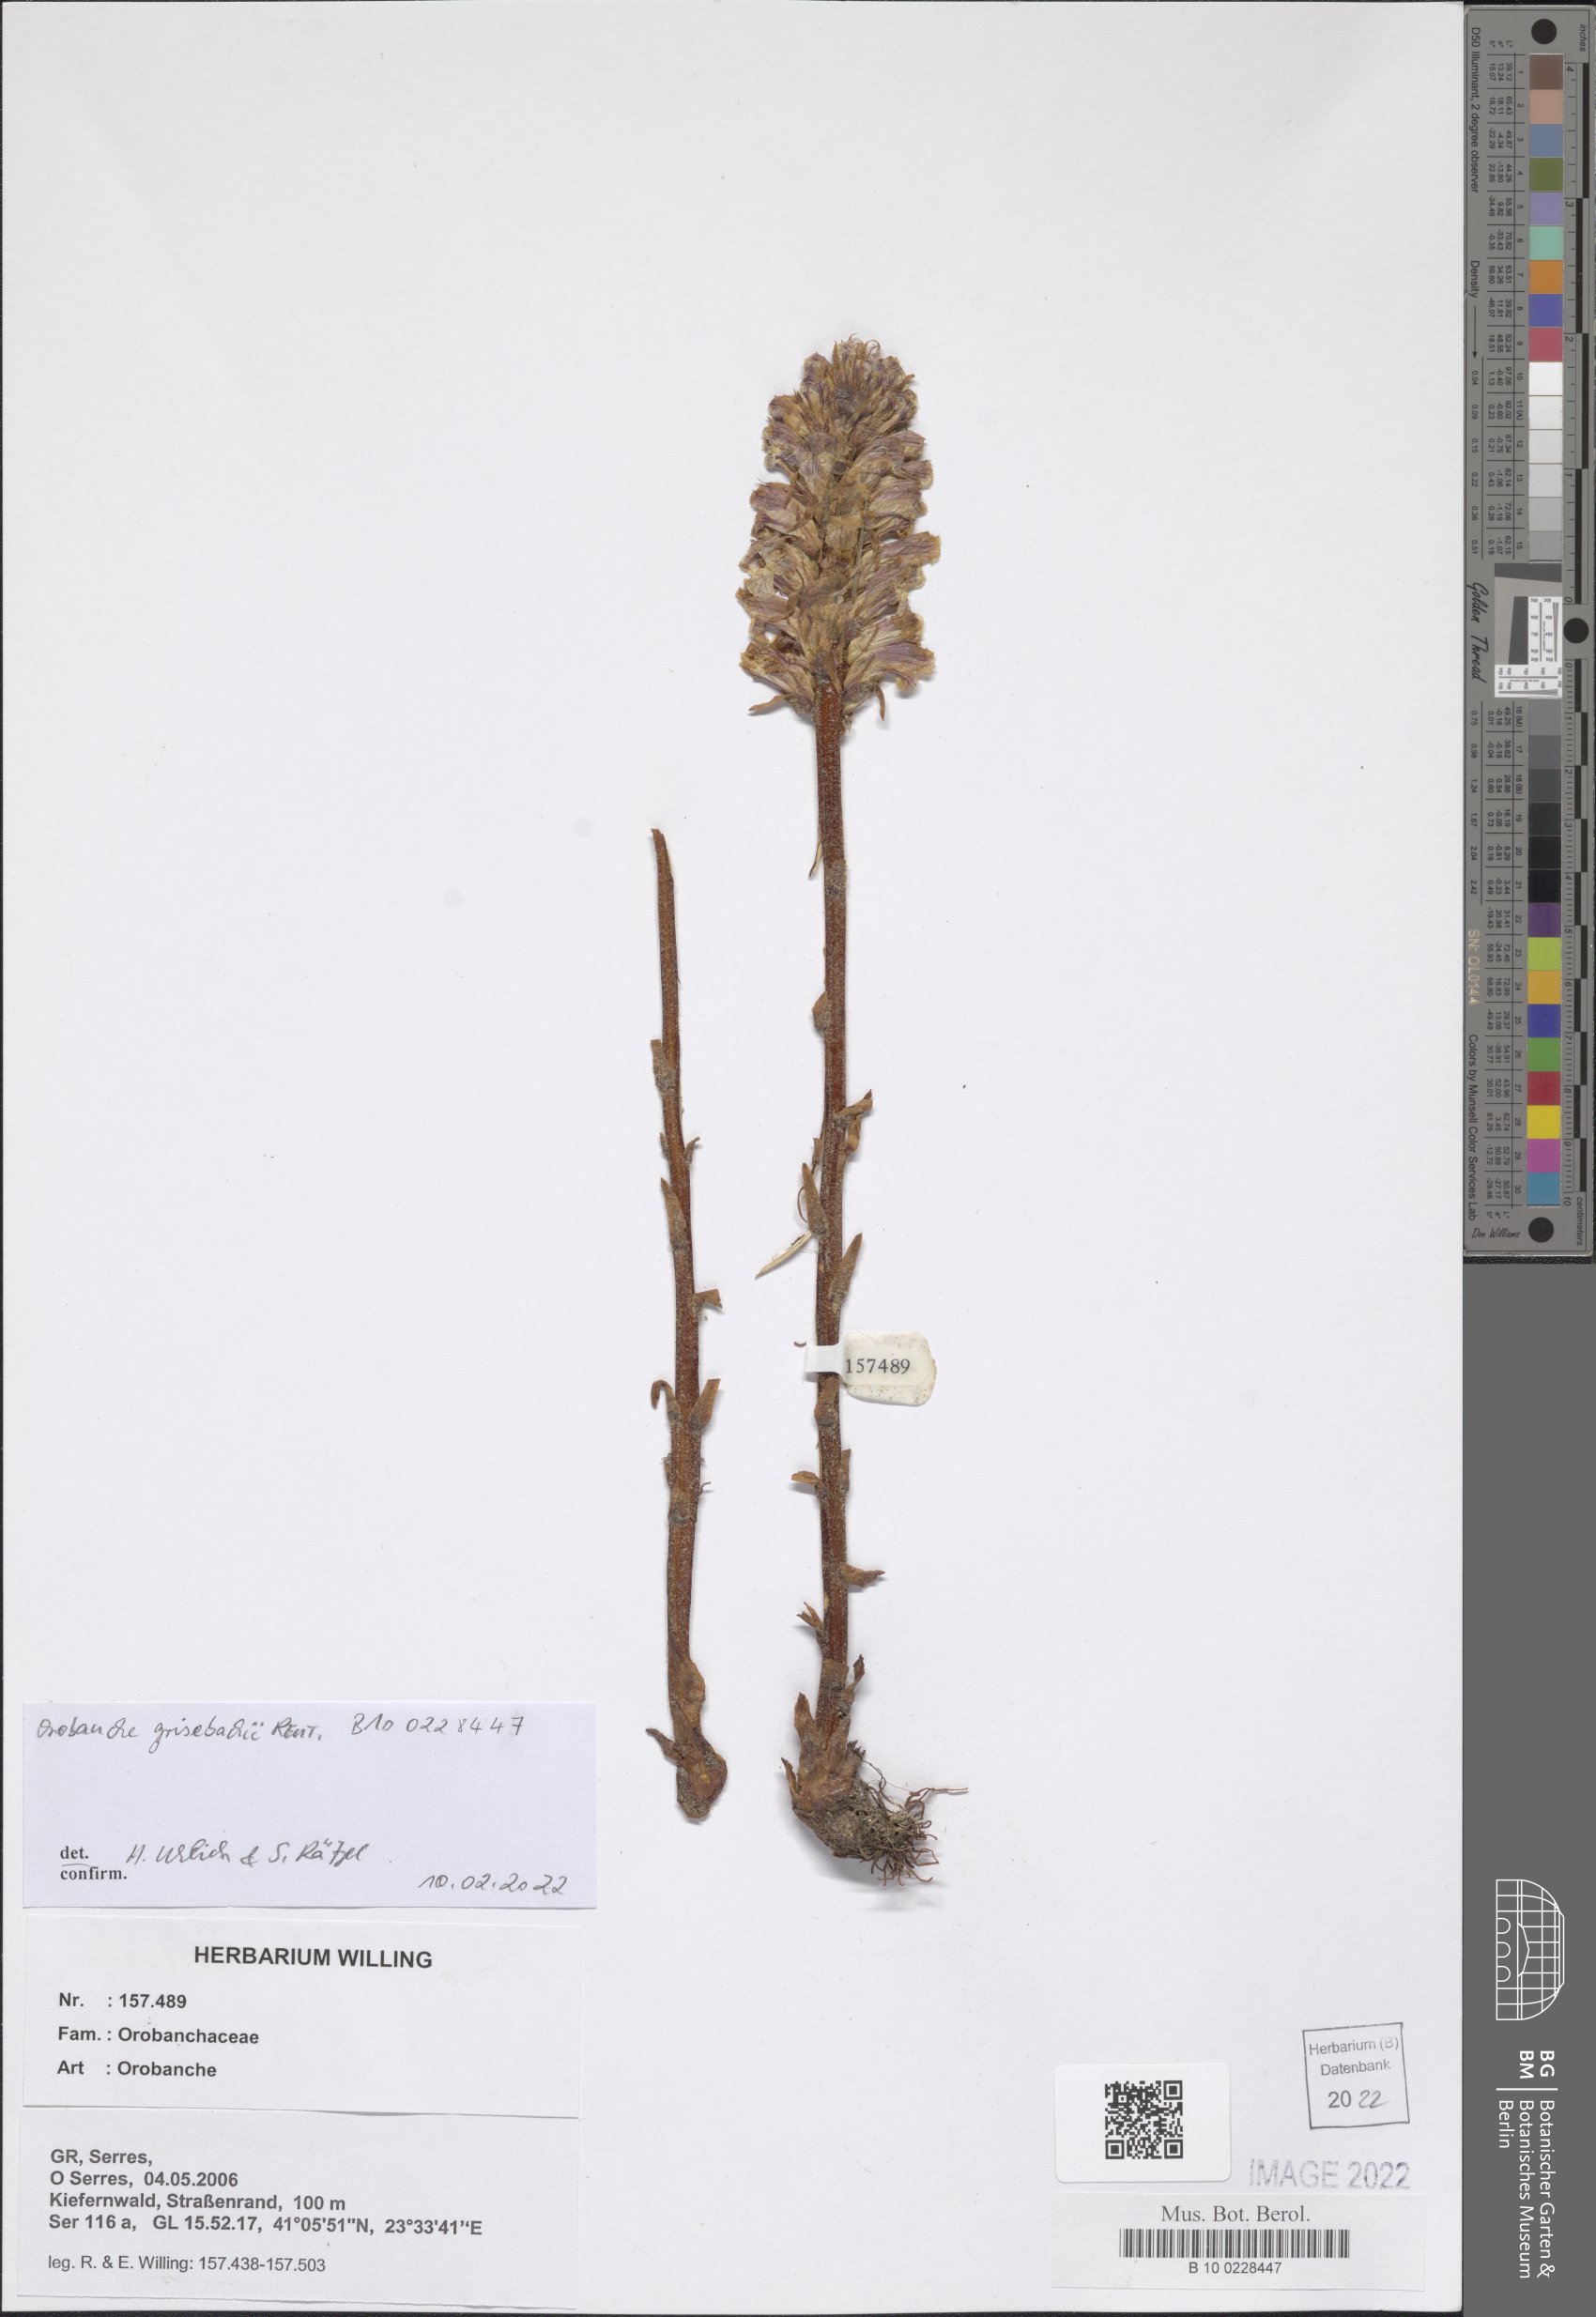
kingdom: Plantae
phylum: Tracheophyta
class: Magnoliopsida
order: Lamiales
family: Orobanchaceae
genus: Orobanche
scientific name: Orobanche grisebachii
